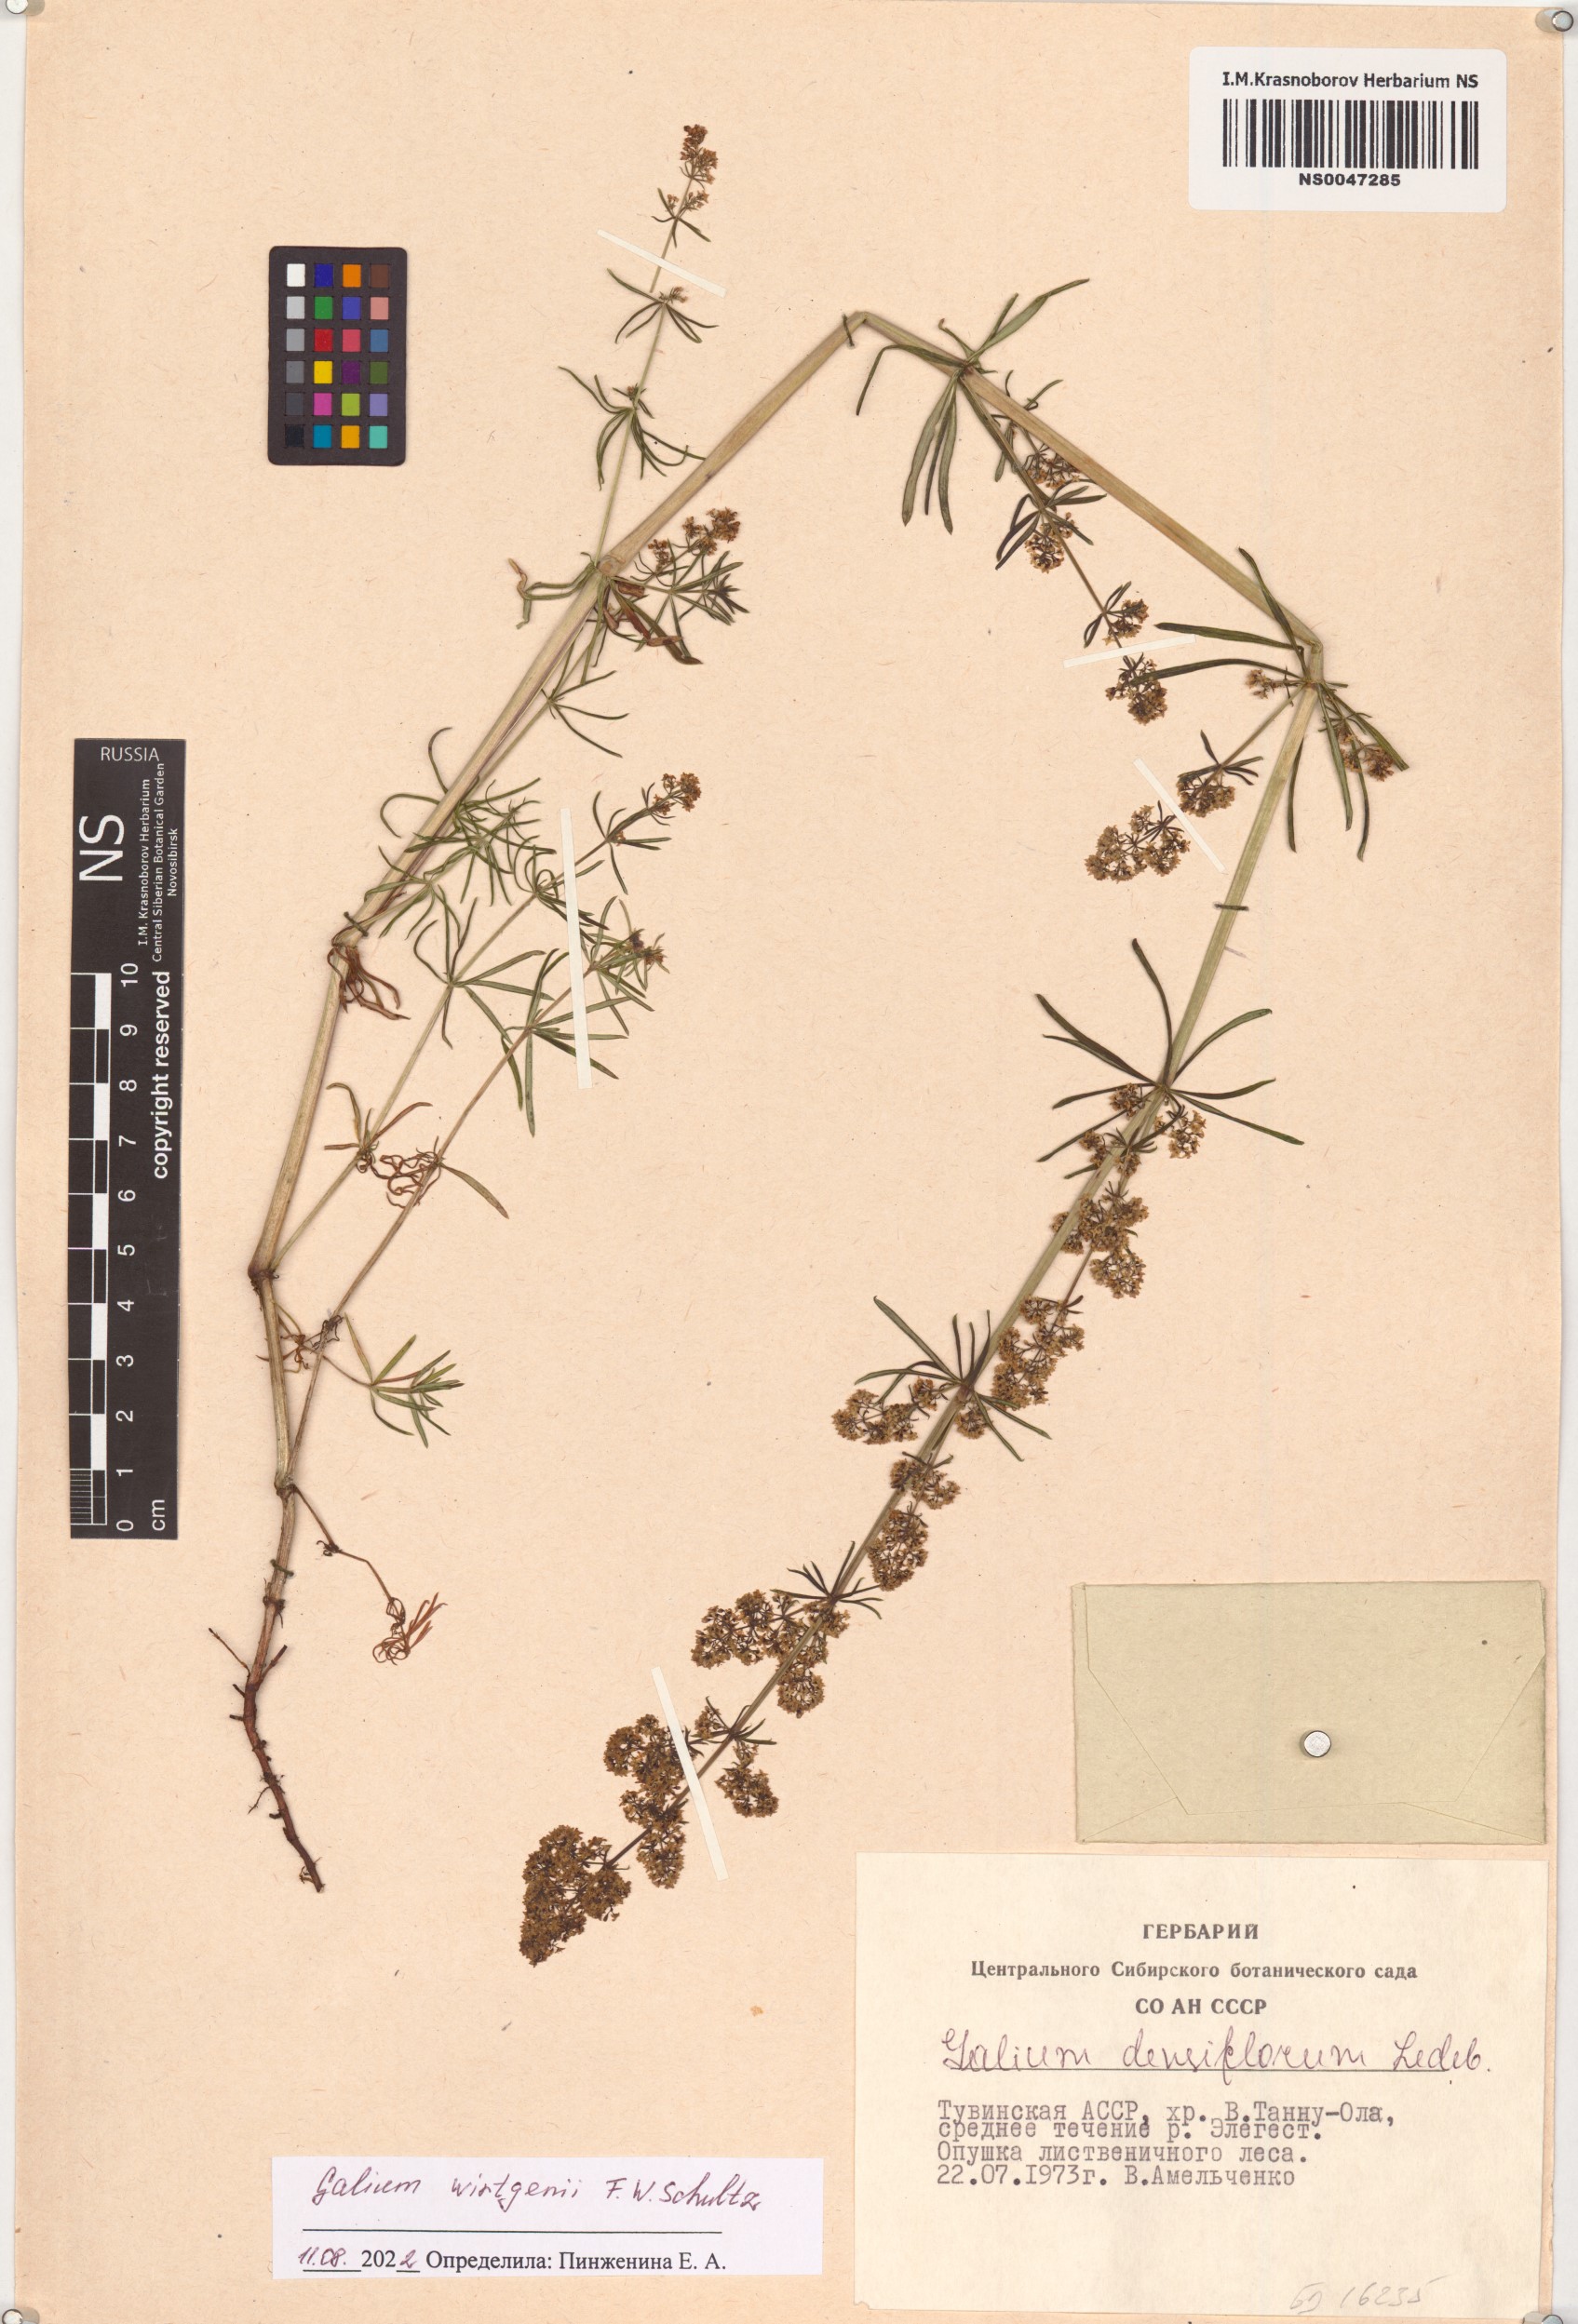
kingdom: Plantae
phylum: Tracheophyta
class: Magnoliopsida
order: Gentianales
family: Rubiaceae
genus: Galium
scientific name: Galium verum
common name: Lady's bedstraw
